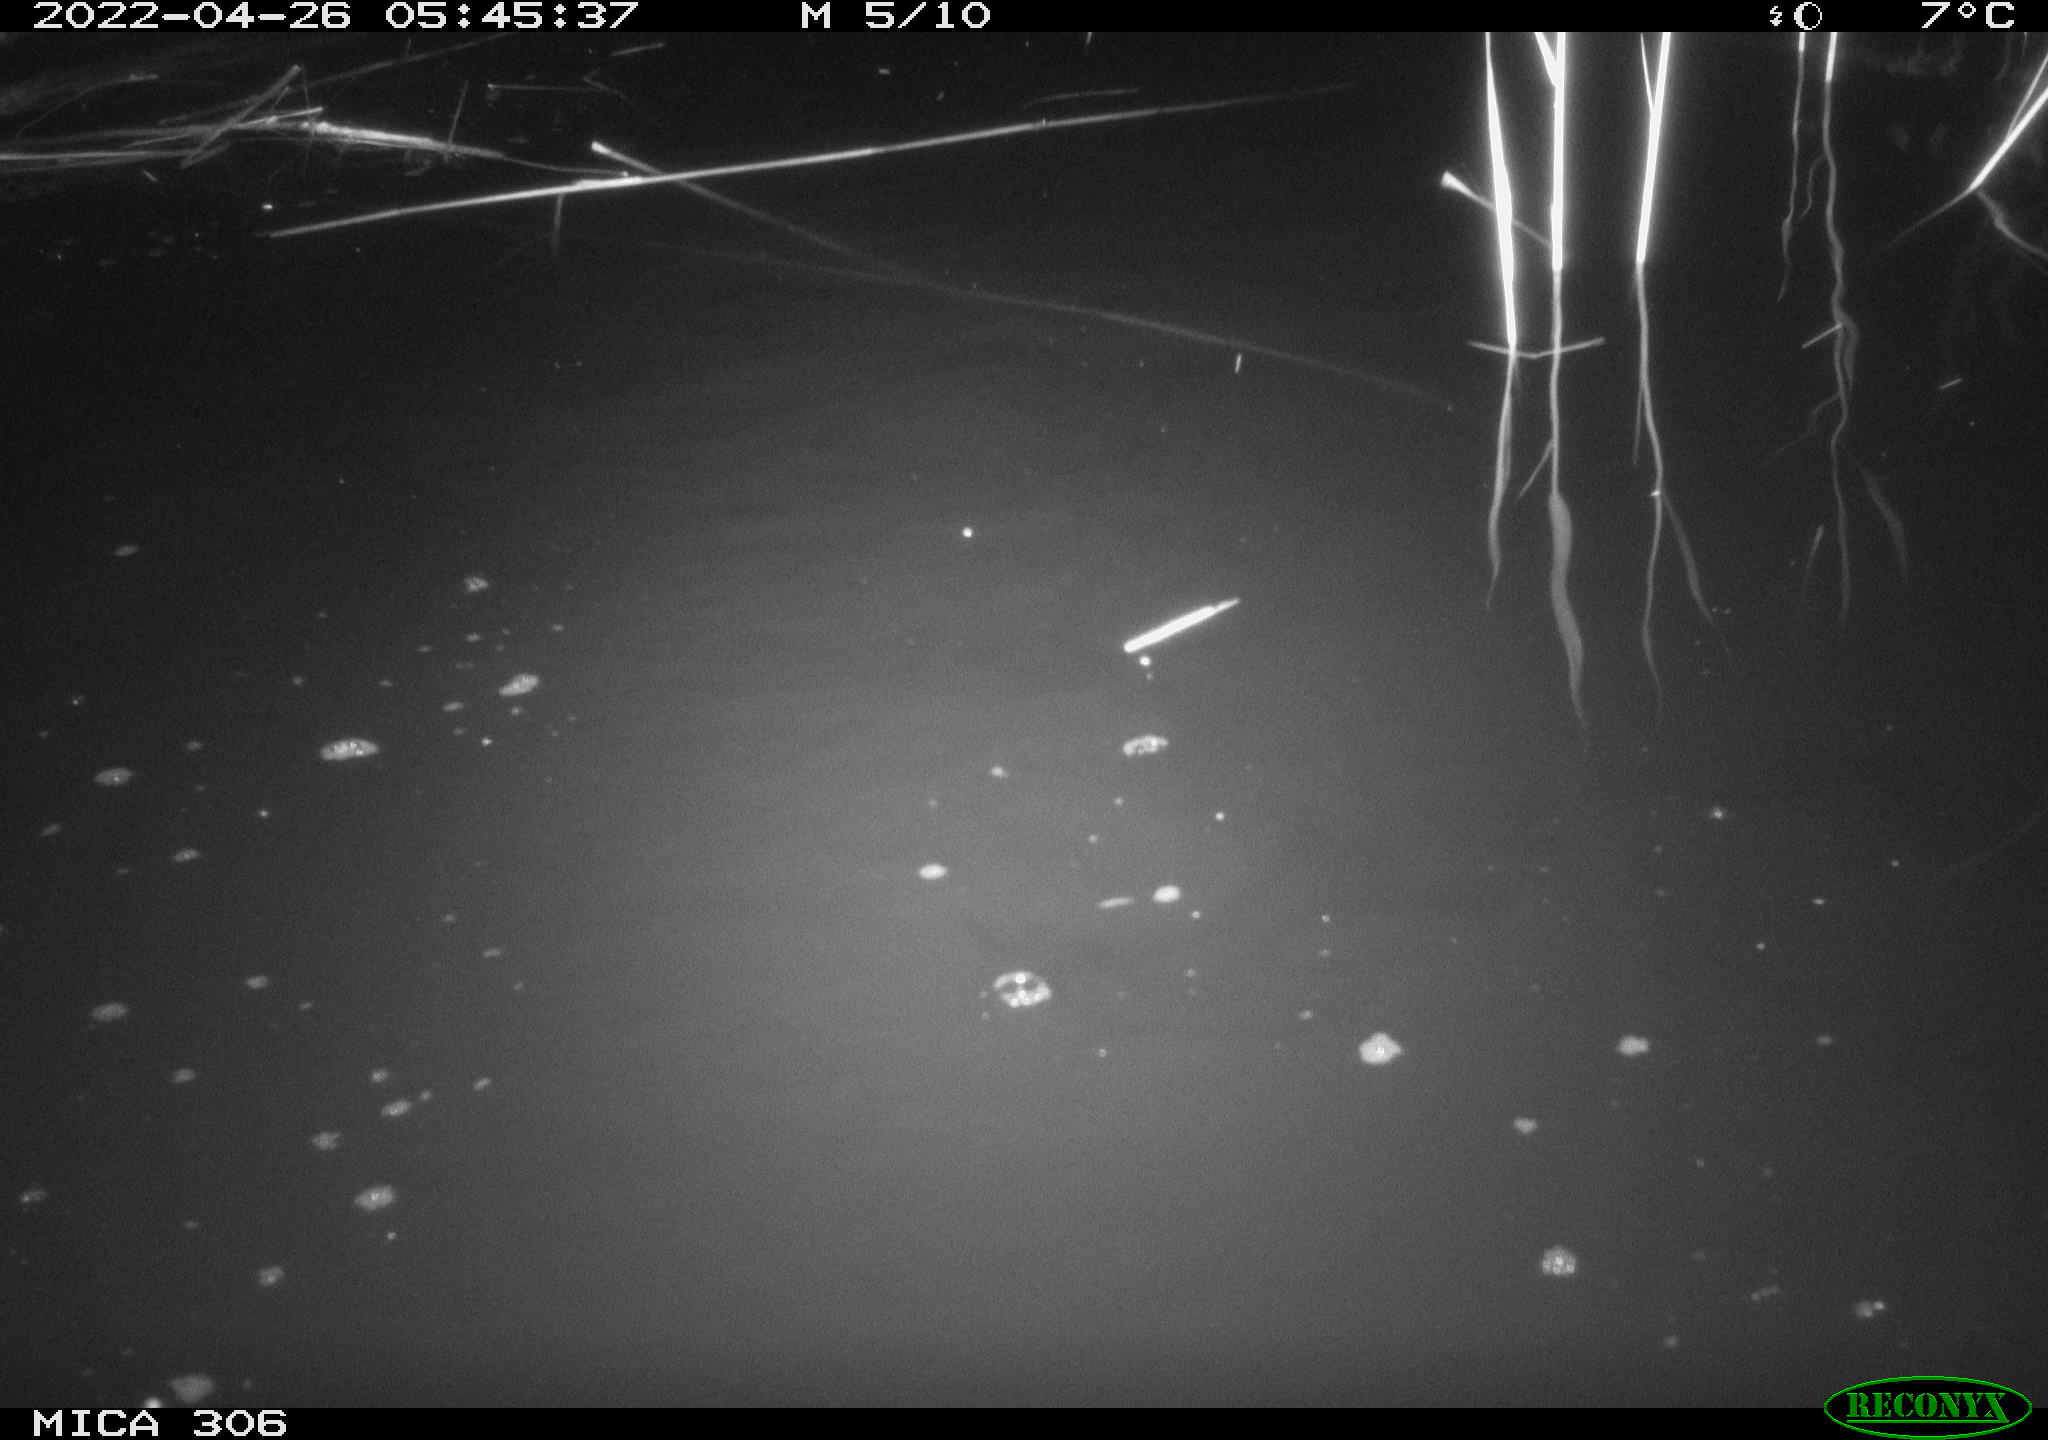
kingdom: Animalia
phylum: Chordata
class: Aves
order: Gruiformes
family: Rallidae
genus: Gallinula
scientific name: Gallinula chloropus
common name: Common moorhen
